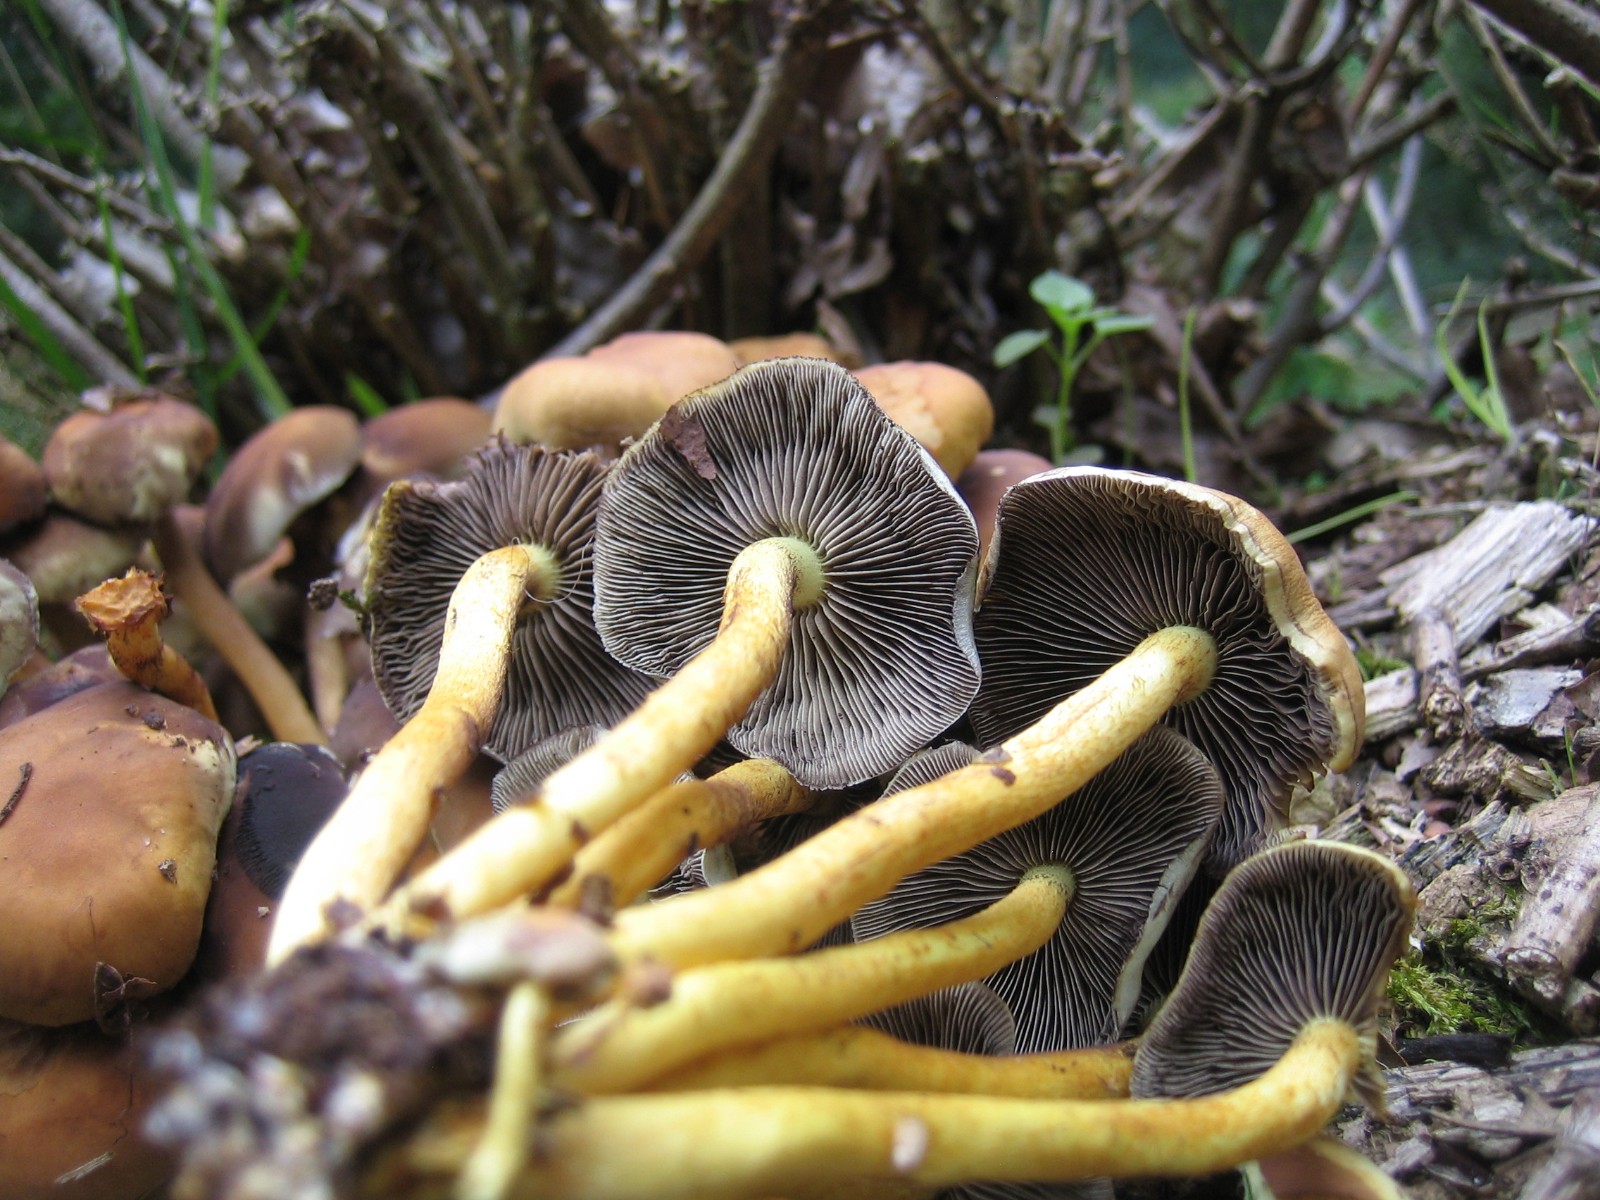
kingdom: Fungi
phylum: Basidiomycota
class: Agaricomycetes
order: Agaricales
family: Strophariaceae
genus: Hypholoma
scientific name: Hypholoma fasciculare
